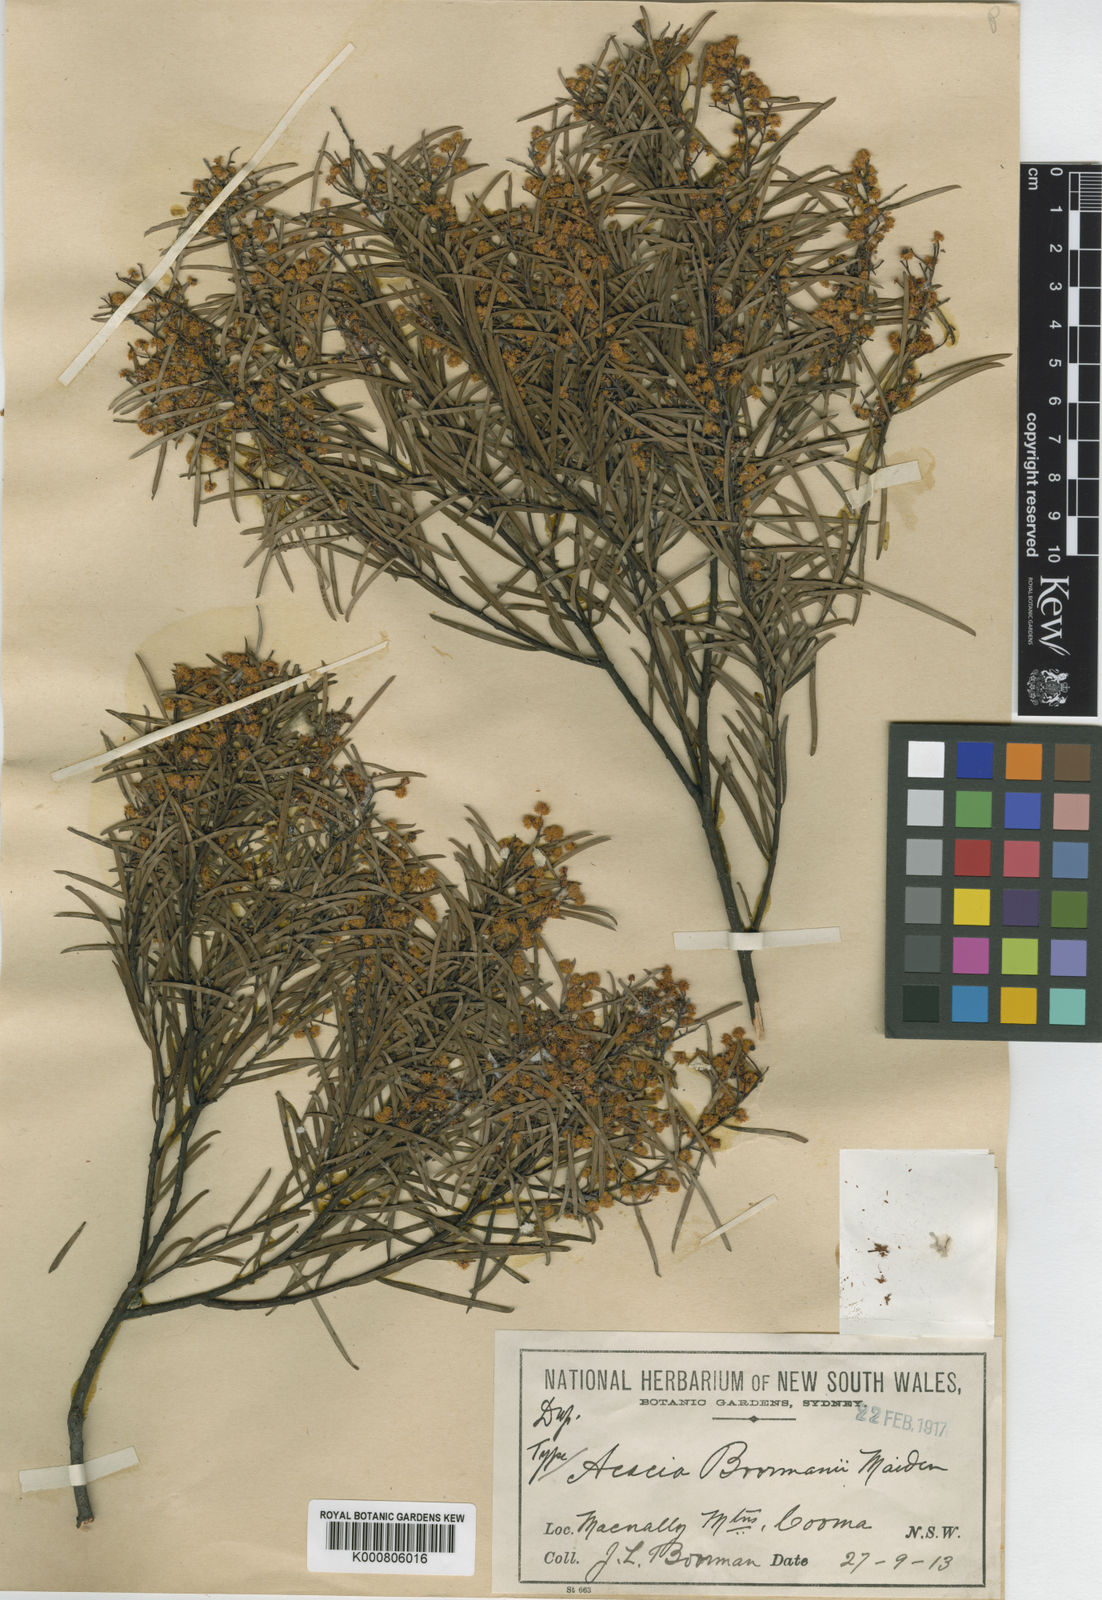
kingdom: Plantae
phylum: Tracheophyta
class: Magnoliopsida
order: Fabales
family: Fabaceae
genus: Acacia
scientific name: Acacia boormanii
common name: Snowy river wattle
